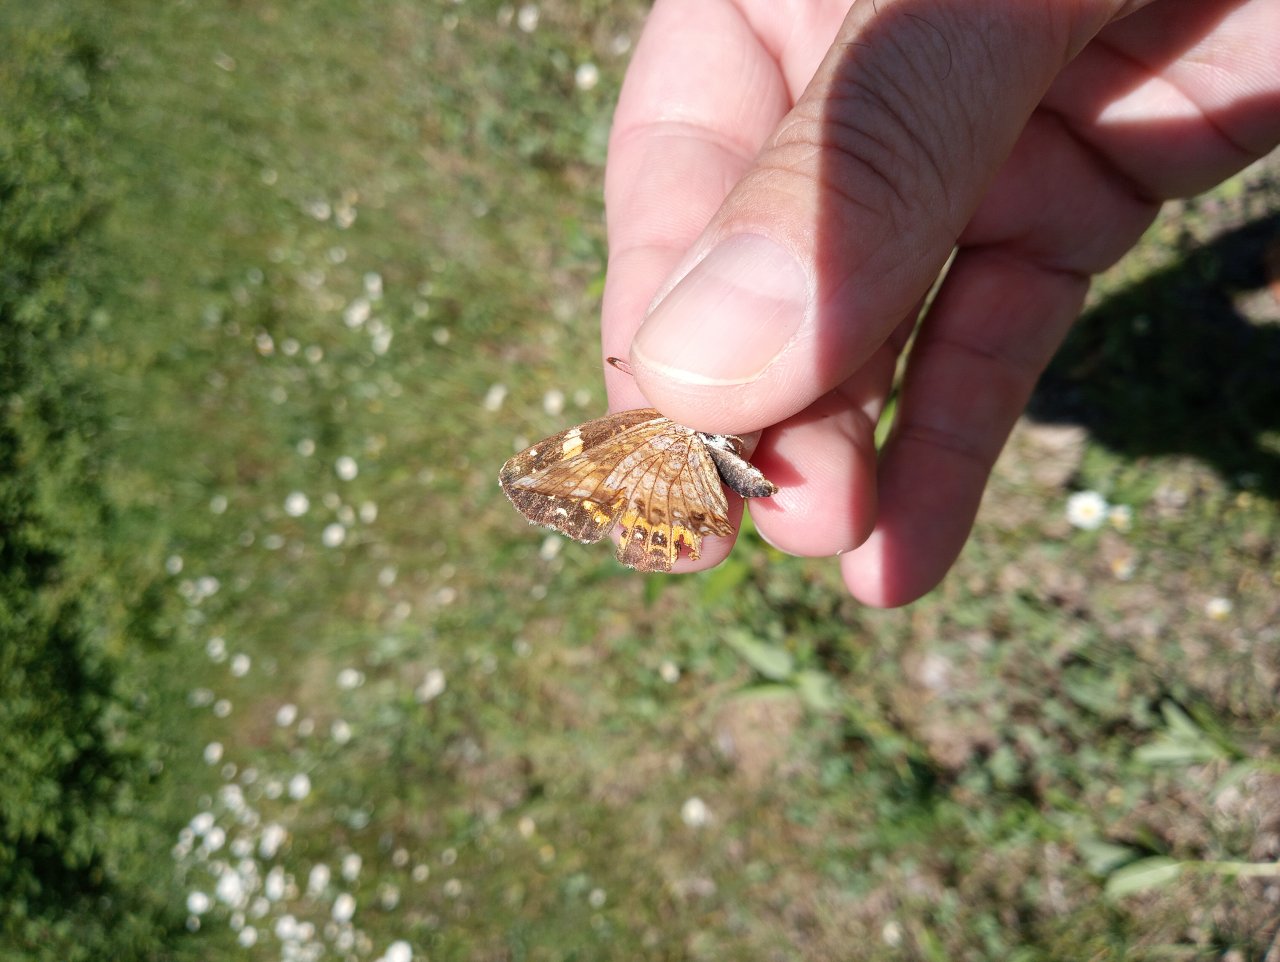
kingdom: Animalia
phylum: Arthropoda
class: Insecta
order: Lepidoptera
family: Nymphalidae
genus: Chlosyne
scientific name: Chlosyne nycteis
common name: Silvery Checkerspot
